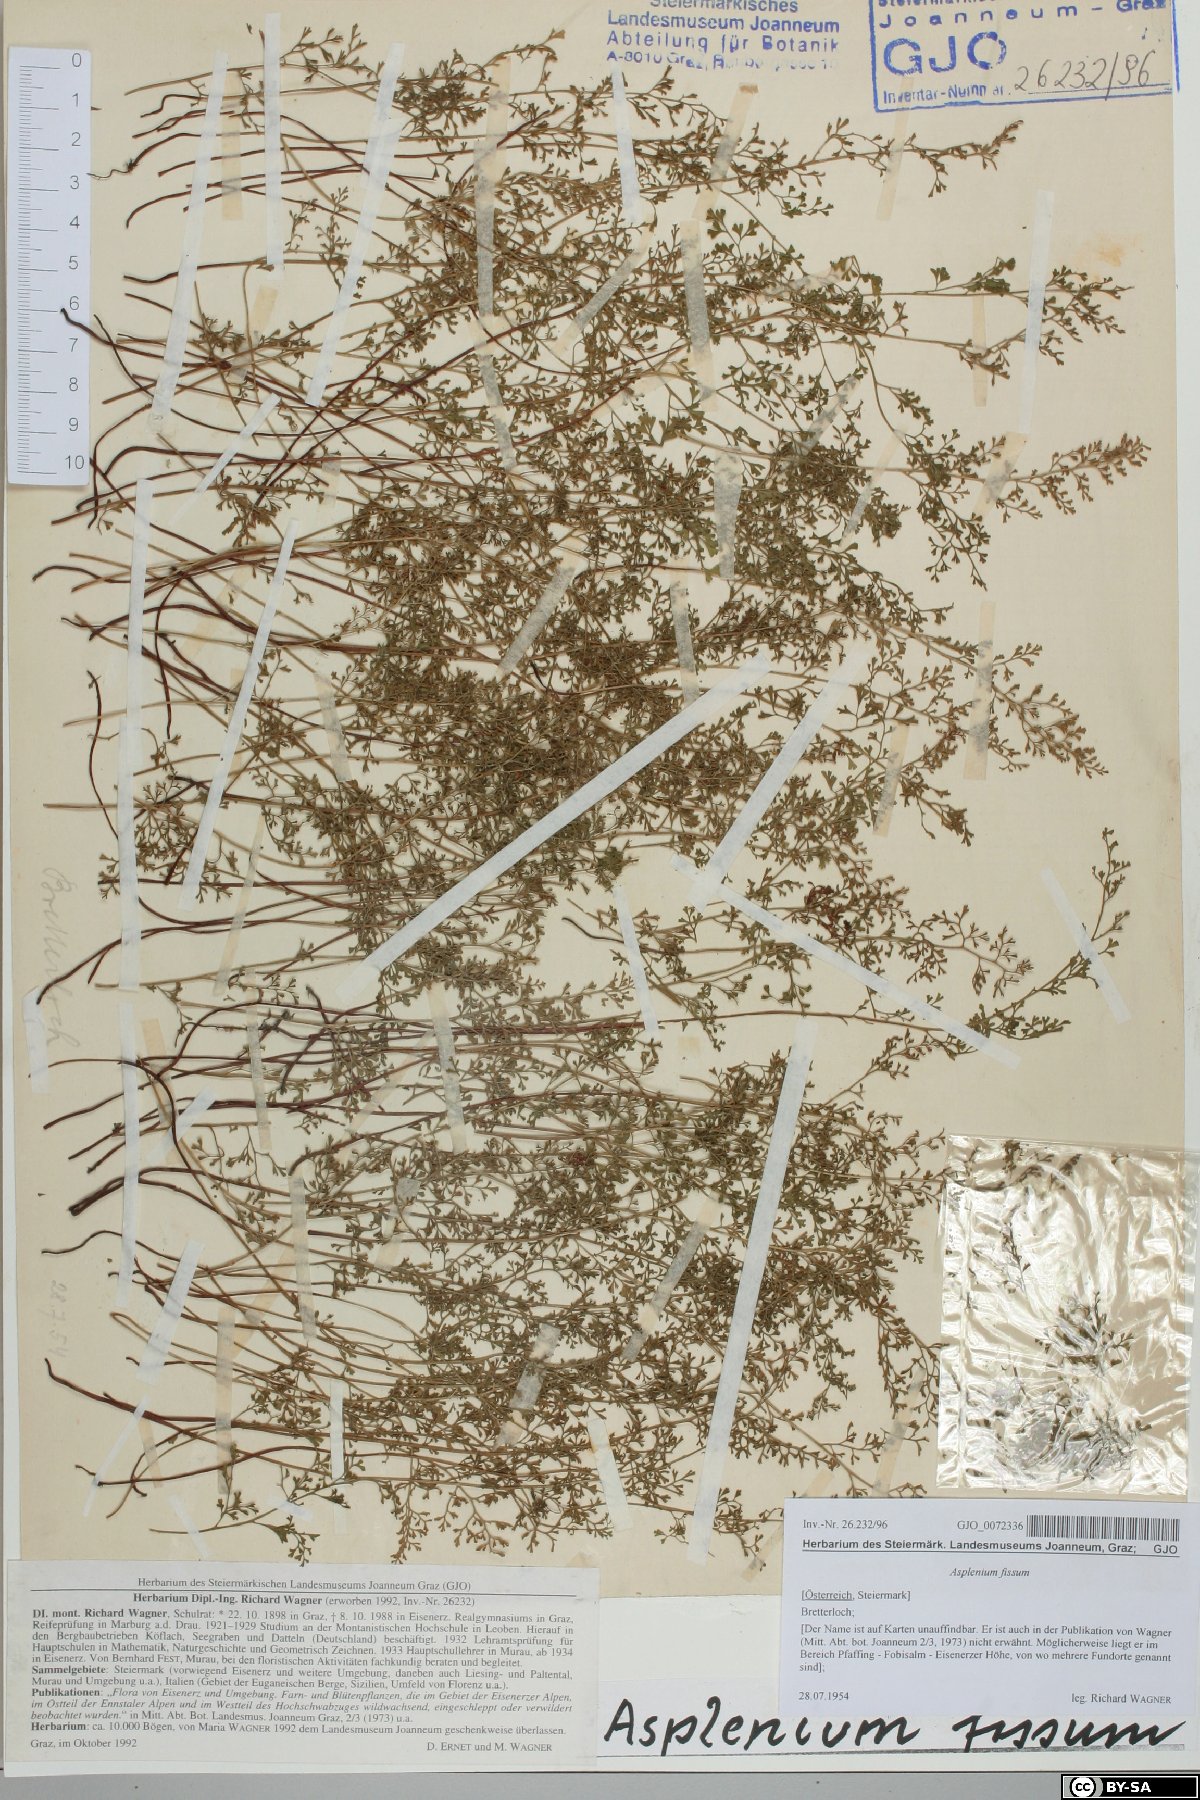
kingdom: Plantae
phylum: Tracheophyta
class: Polypodiopsida
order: Polypodiales
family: Aspleniaceae
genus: Asplenium
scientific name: Asplenium fissum
